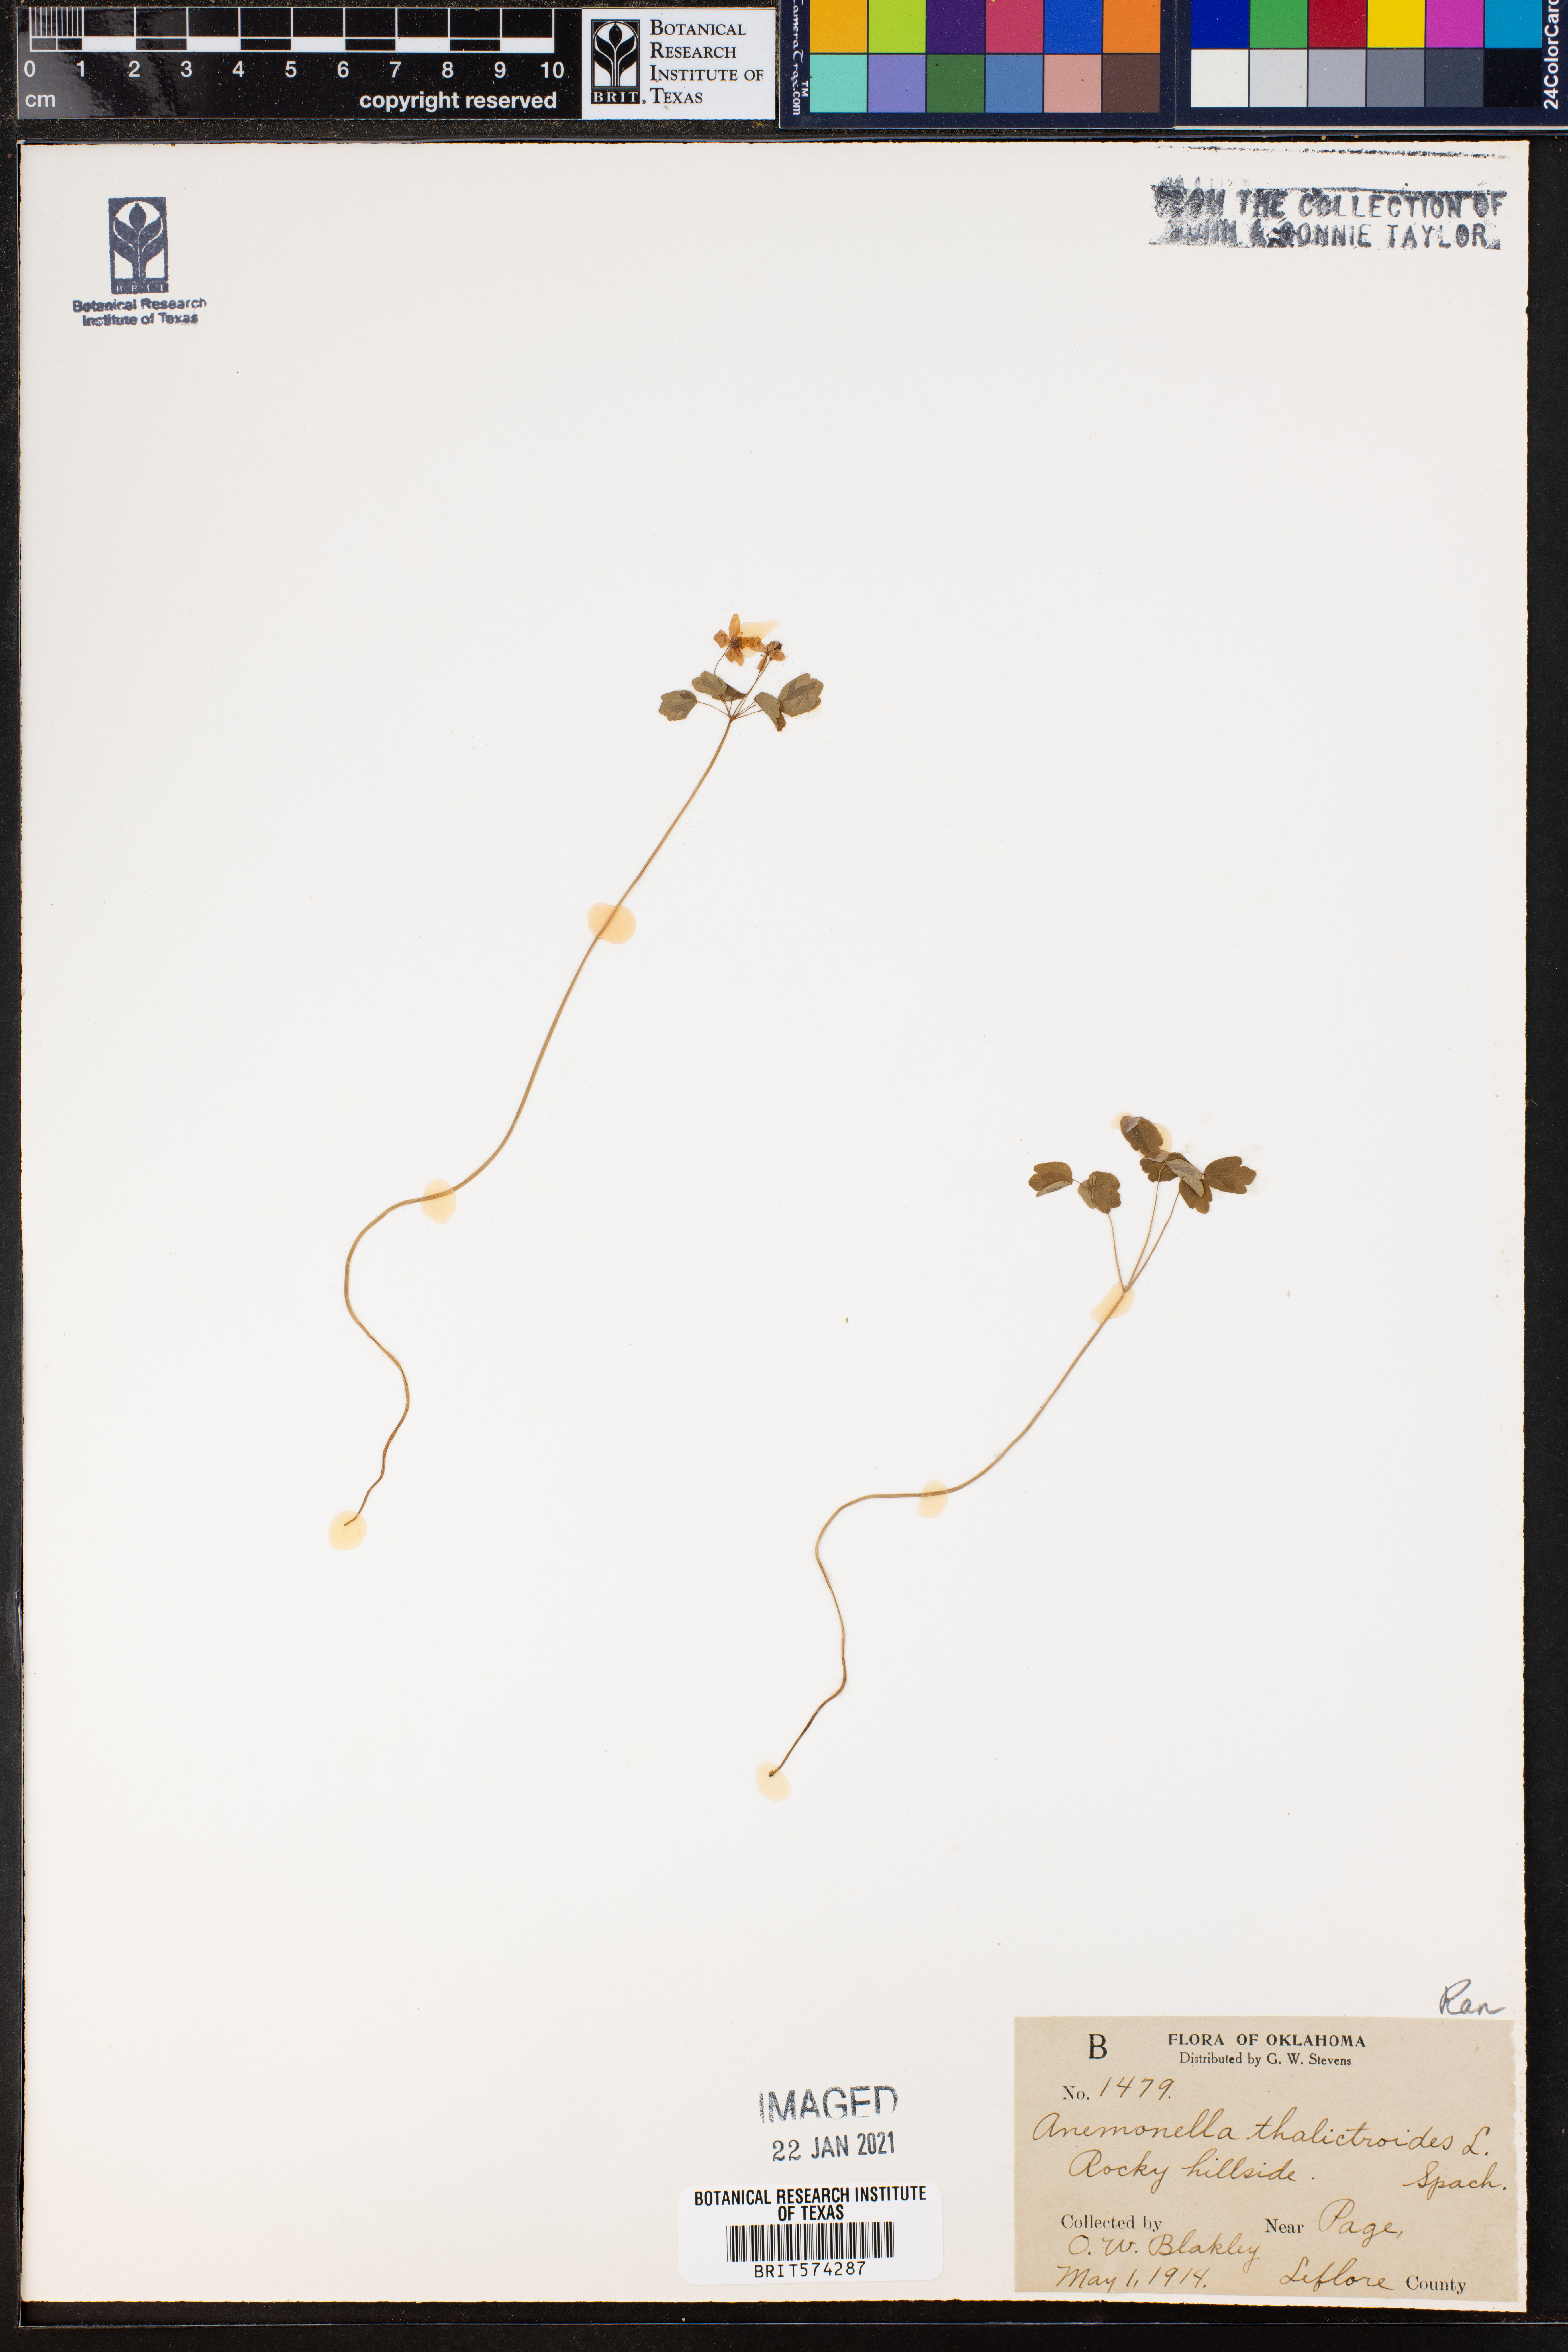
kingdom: Plantae
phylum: Tracheophyta
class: Magnoliopsida
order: Ranunculales
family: Ranunculaceae
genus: Thalictrum
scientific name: Thalictrum thalictroides
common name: Rue-anemone
